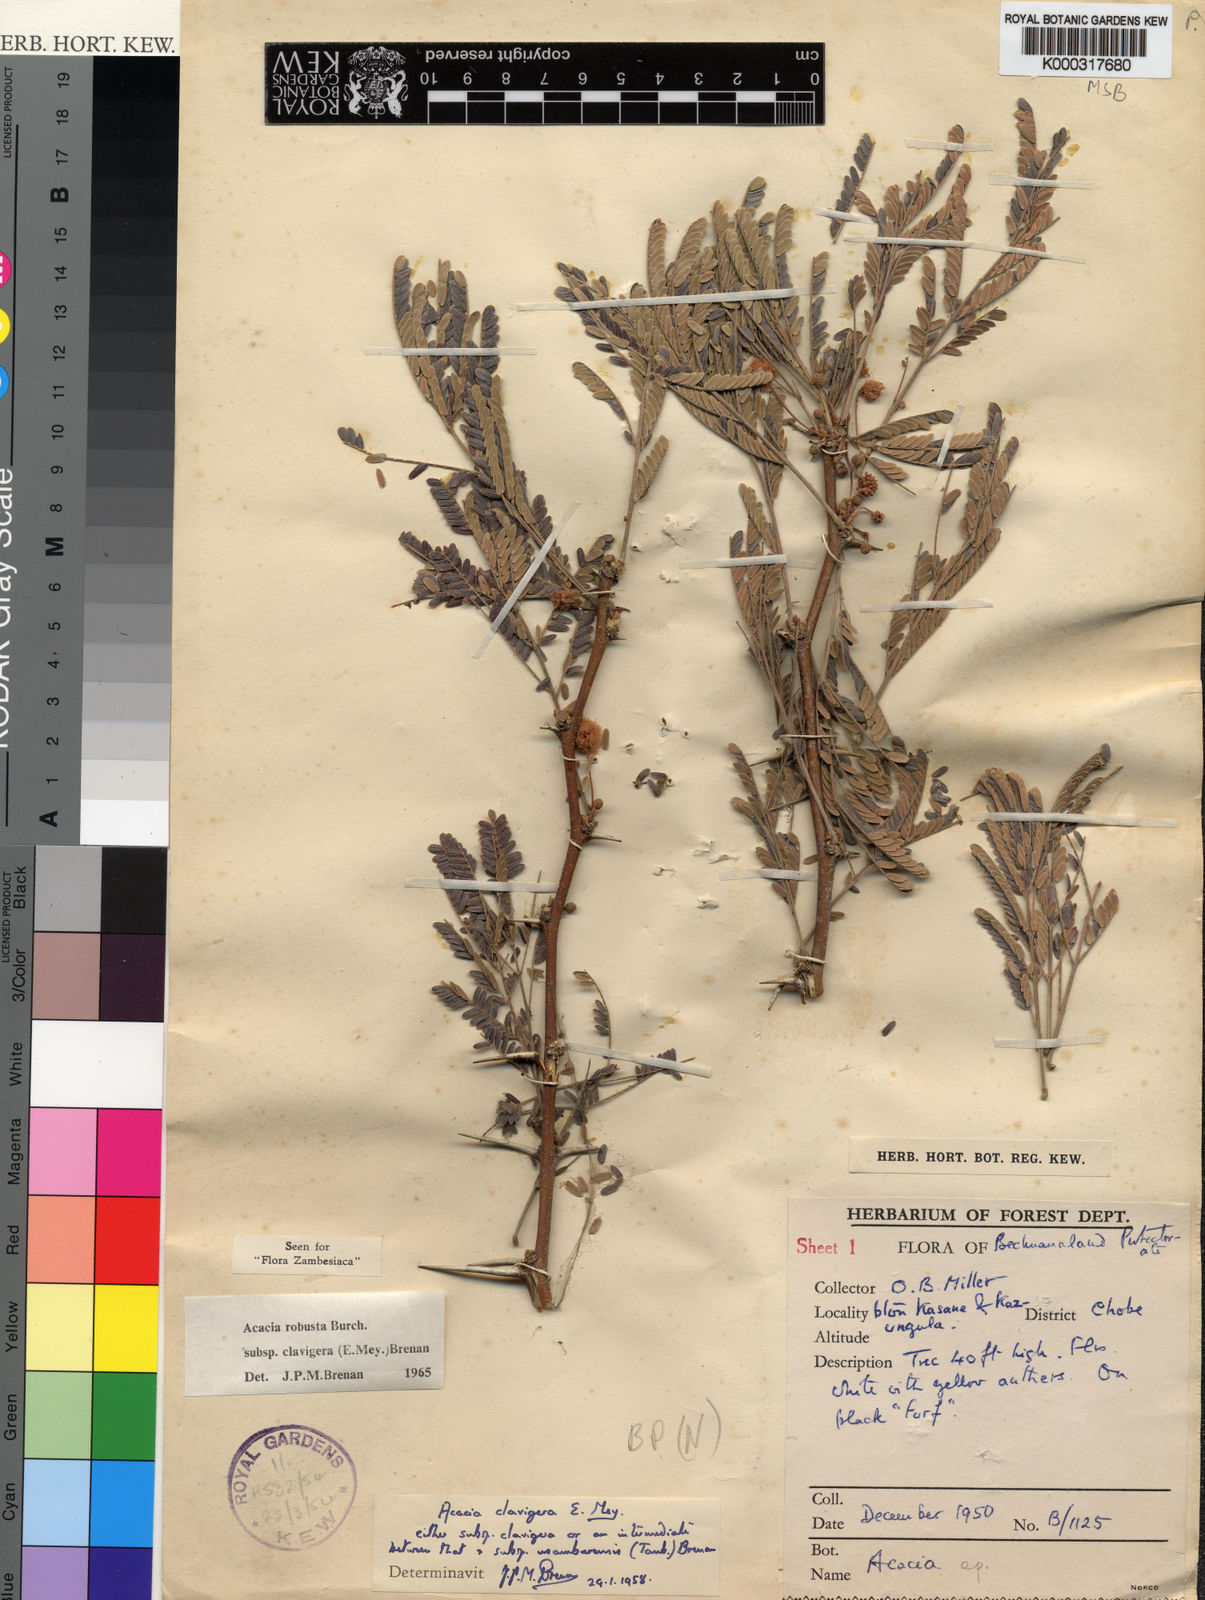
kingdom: Plantae
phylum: Tracheophyta
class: Magnoliopsida
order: Fabales
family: Fabaceae
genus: Vachellia
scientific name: Vachellia robusta
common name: Ankle thorn
